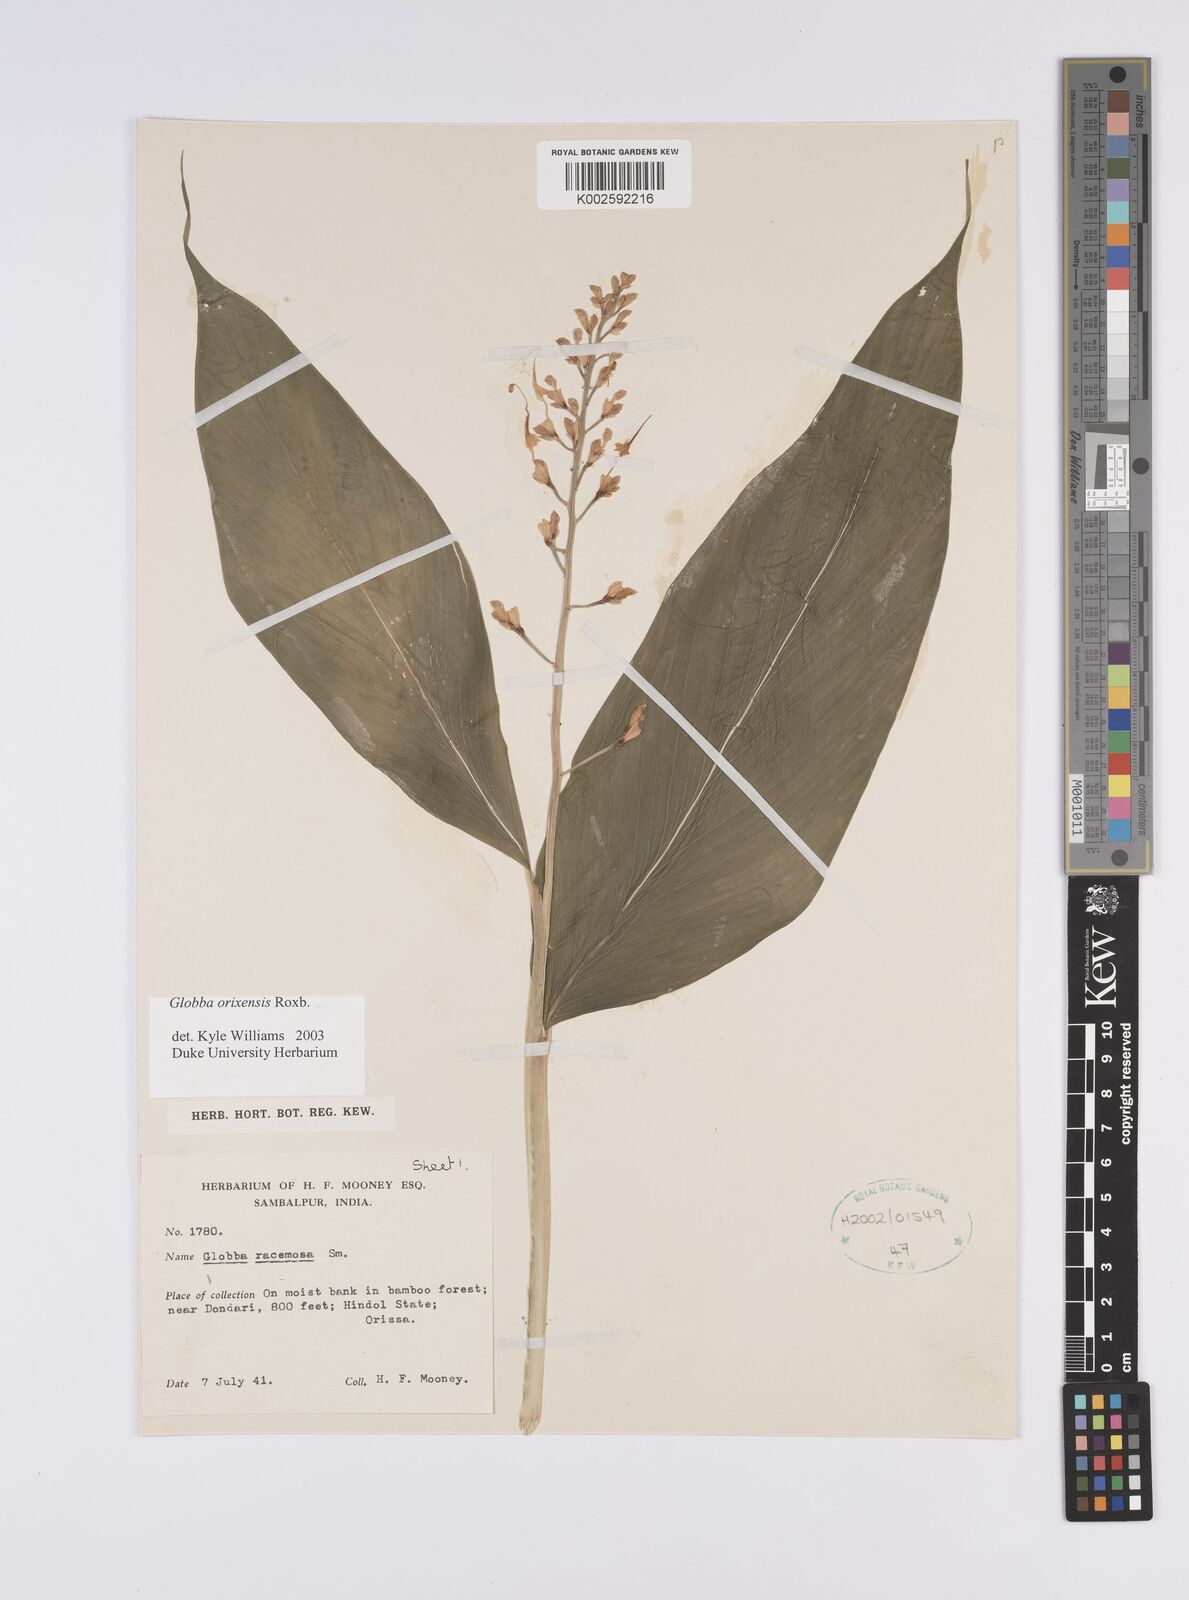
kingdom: Plantae
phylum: Tracheophyta
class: Liliopsida
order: Zingiberales
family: Zingiberaceae
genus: Globba
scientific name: Globba orixensis
